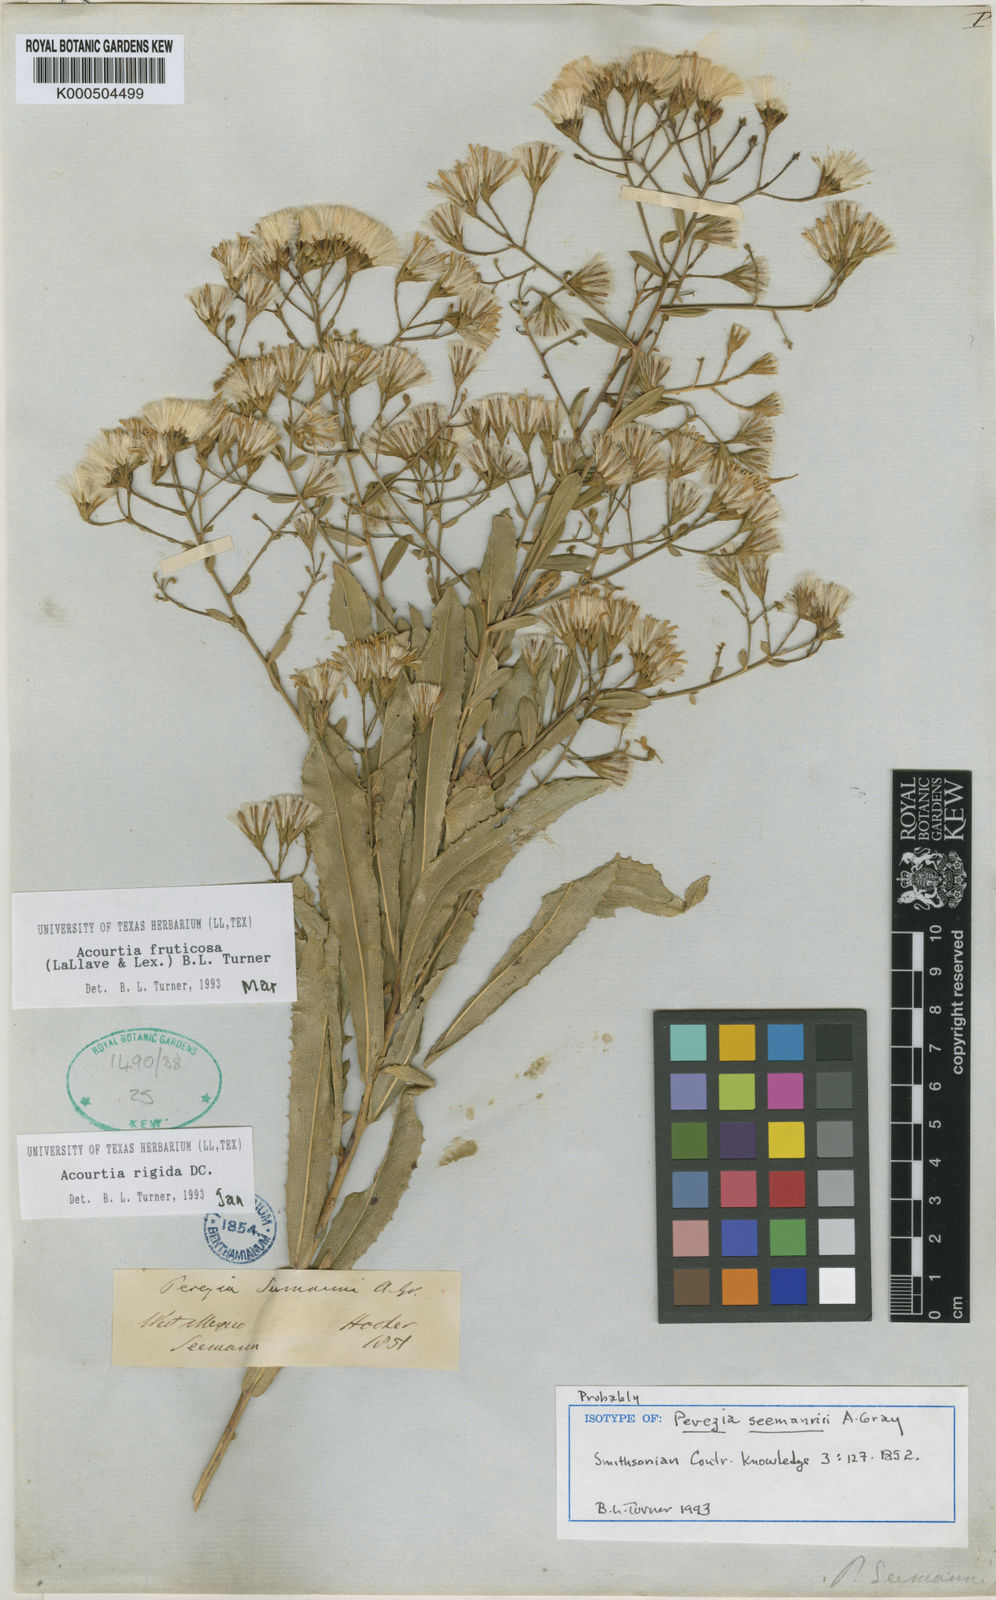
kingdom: Plantae
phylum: Tracheophyta
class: Magnoliopsida
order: Asterales
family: Asteraceae
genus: Acourtia
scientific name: Acourtia
